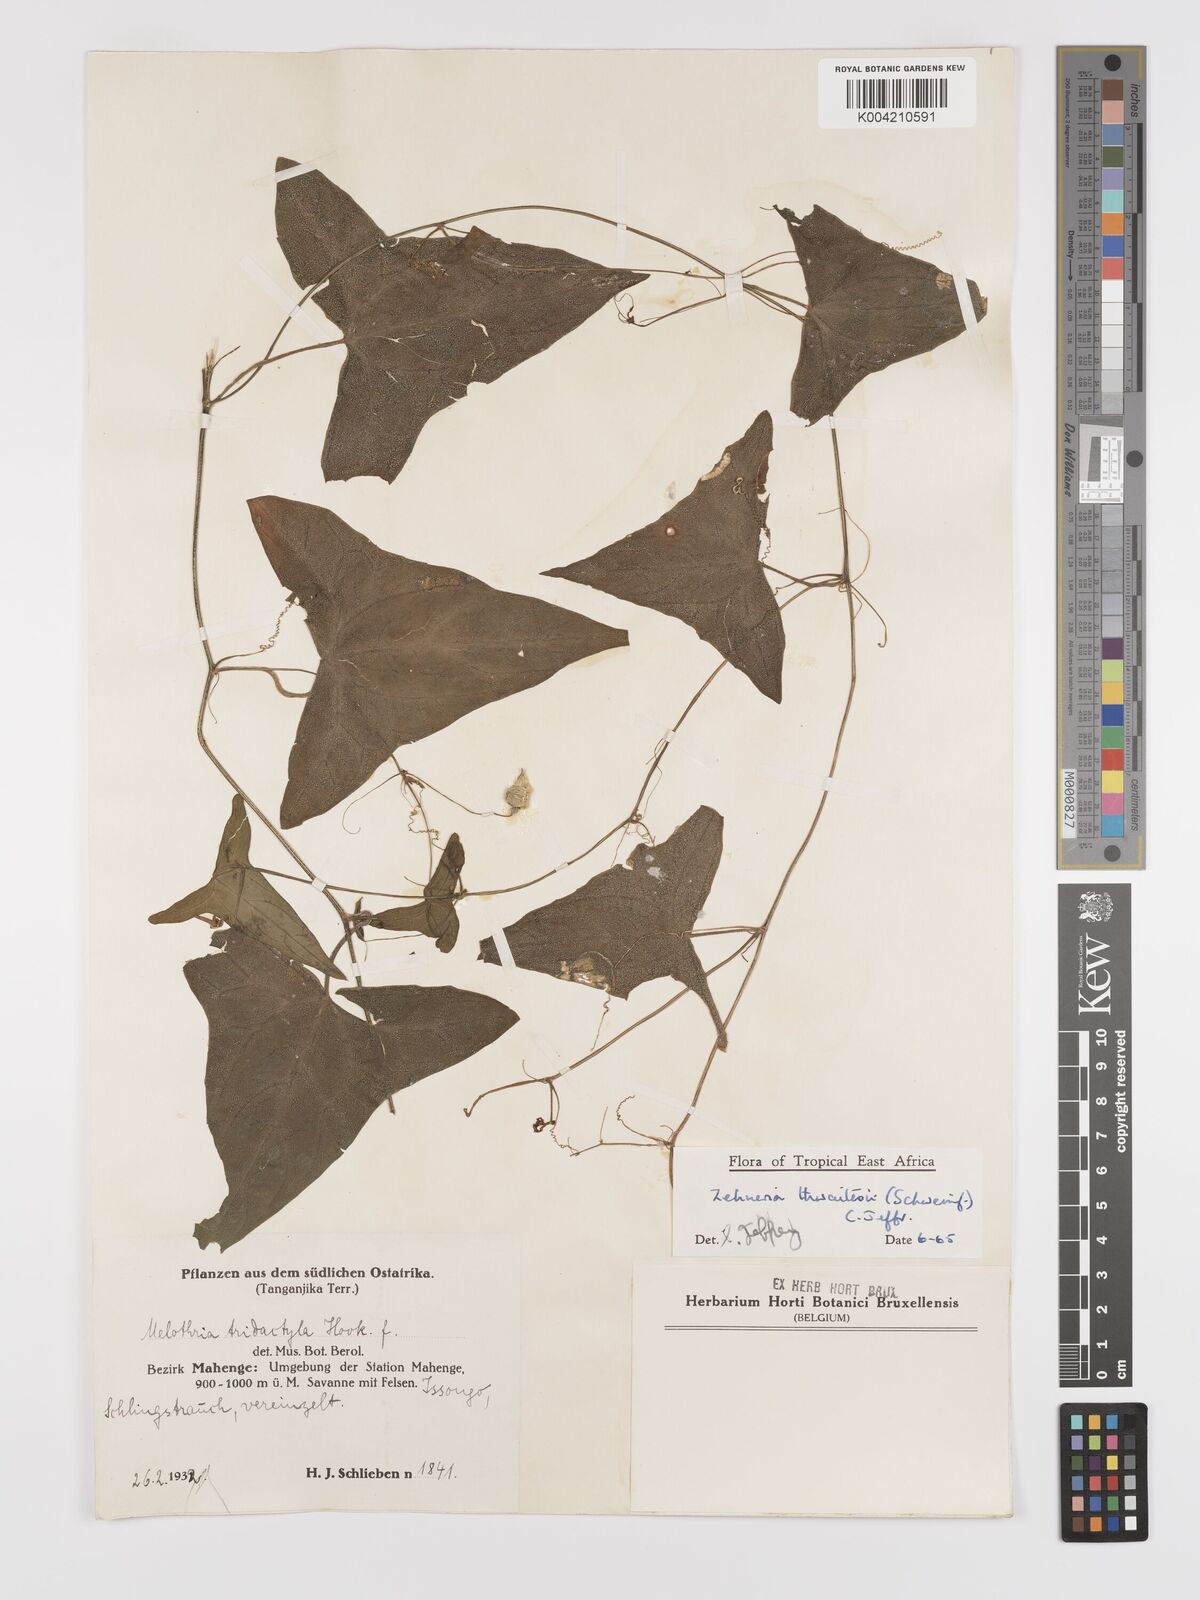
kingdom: Plantae
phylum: Tracheophyta
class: Magnoliopsida
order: Cucurbitales
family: Cucurbitaceae
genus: Zehneria
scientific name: Zehneria thwaitesii
